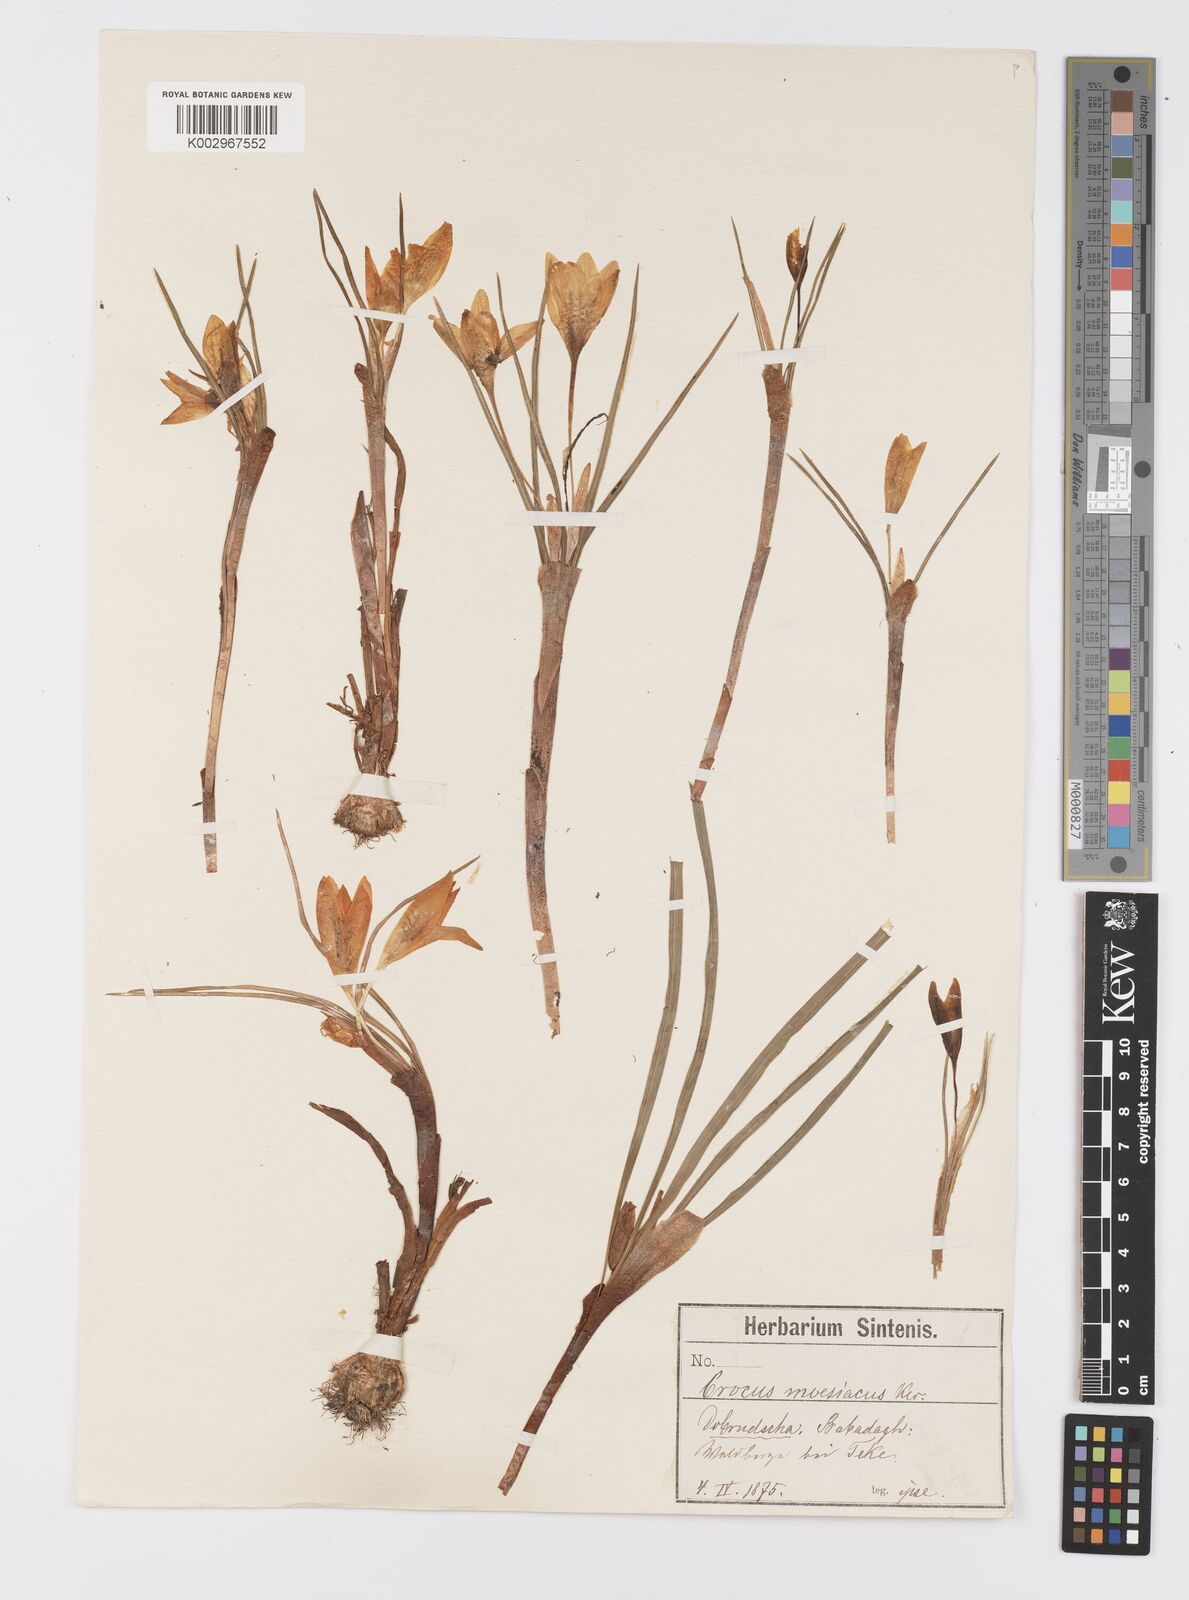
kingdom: Plantae
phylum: Tracheophyta
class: Liliopsida
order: Asparagales
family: Iridaceae
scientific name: Iridaceae
